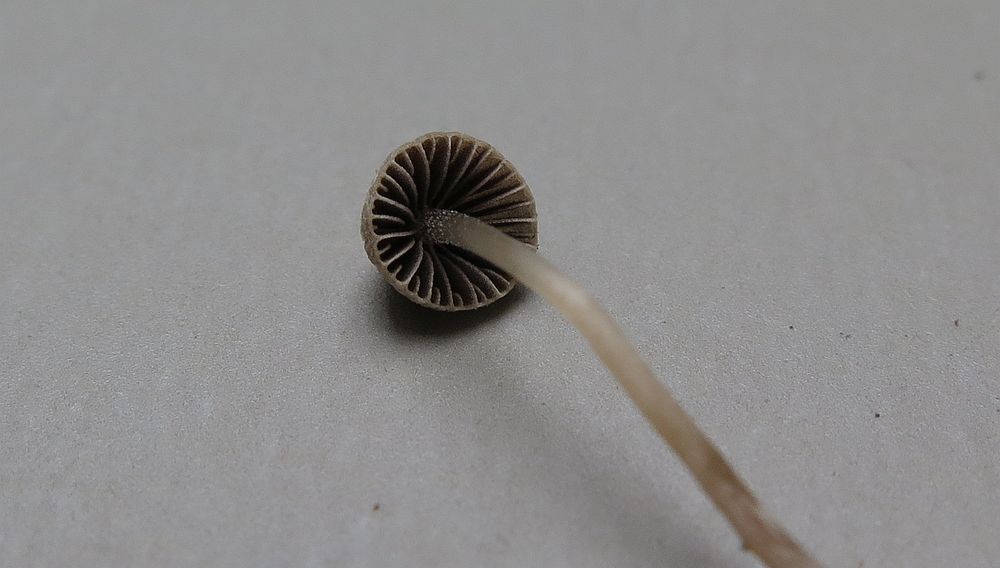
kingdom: Fungi
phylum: Basidiomycota
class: Agaricomycetes
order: Agaricales
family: Psathyrellaceae
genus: Psathyrella
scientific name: Psathyrella tenera
